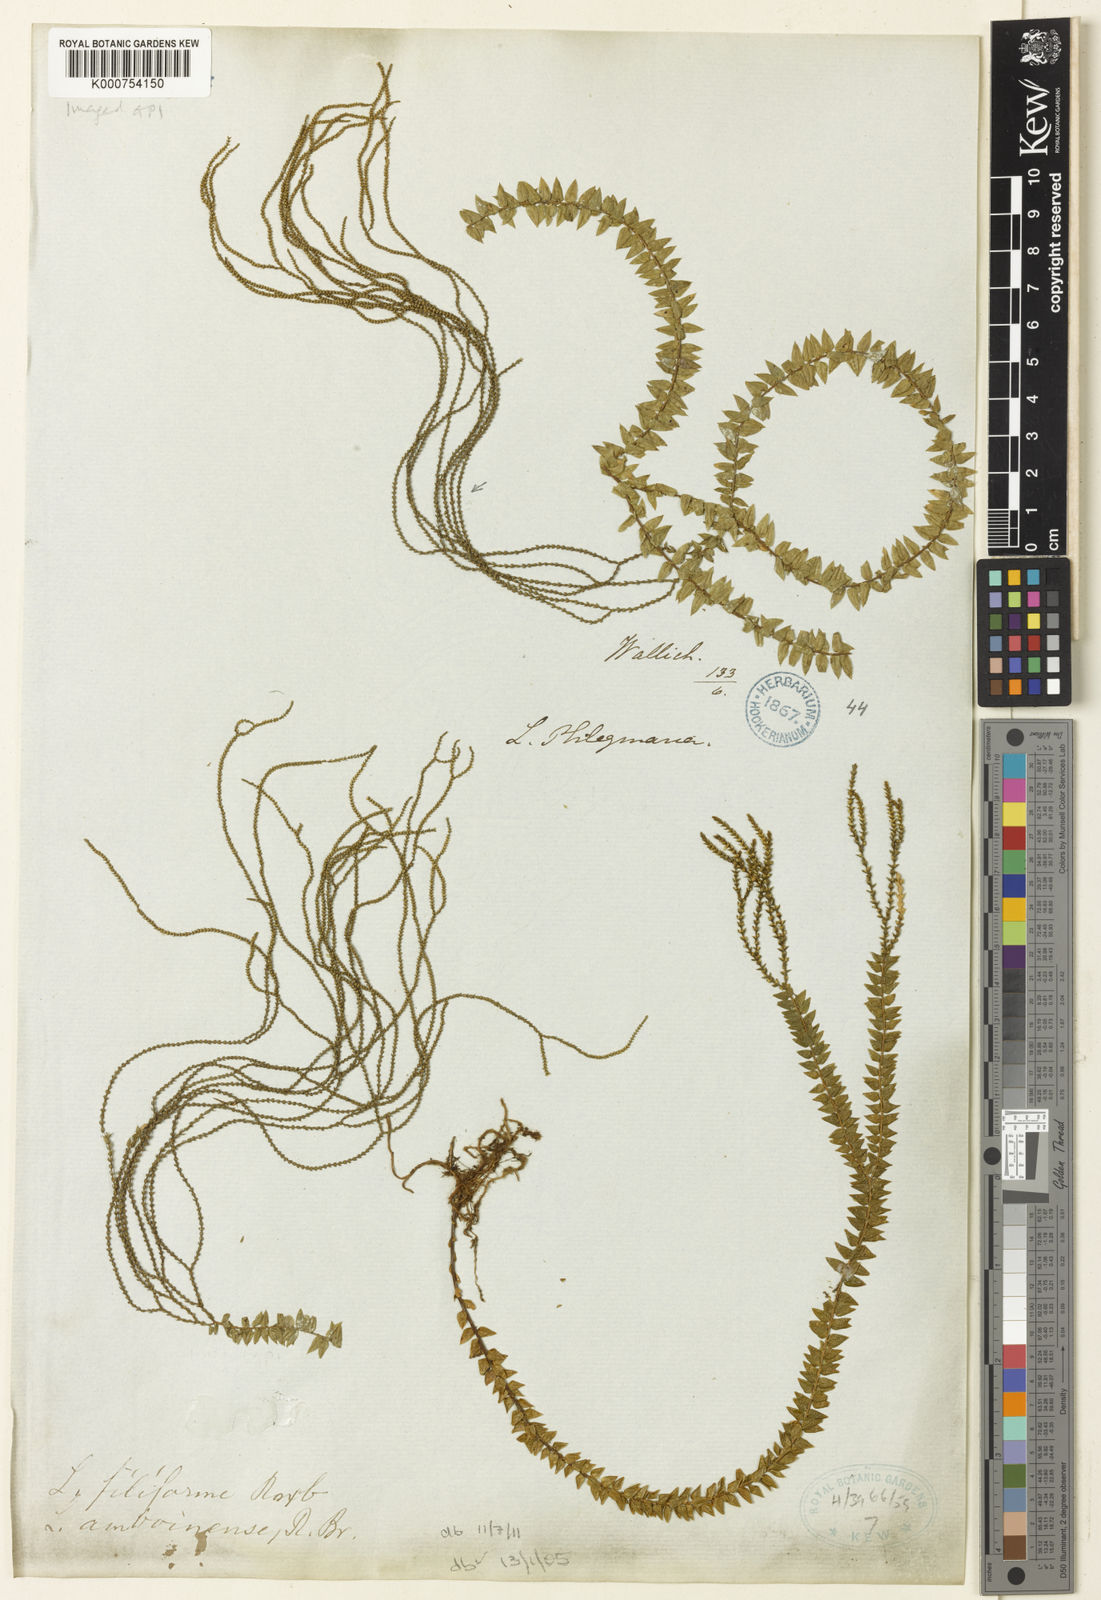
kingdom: Plantae
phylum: Tracheophyta
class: Lycopodiopsida
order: Lycopodiales
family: Lycopodiaceae
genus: Phlegmariurus
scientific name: Phlegmariurus filiformis
